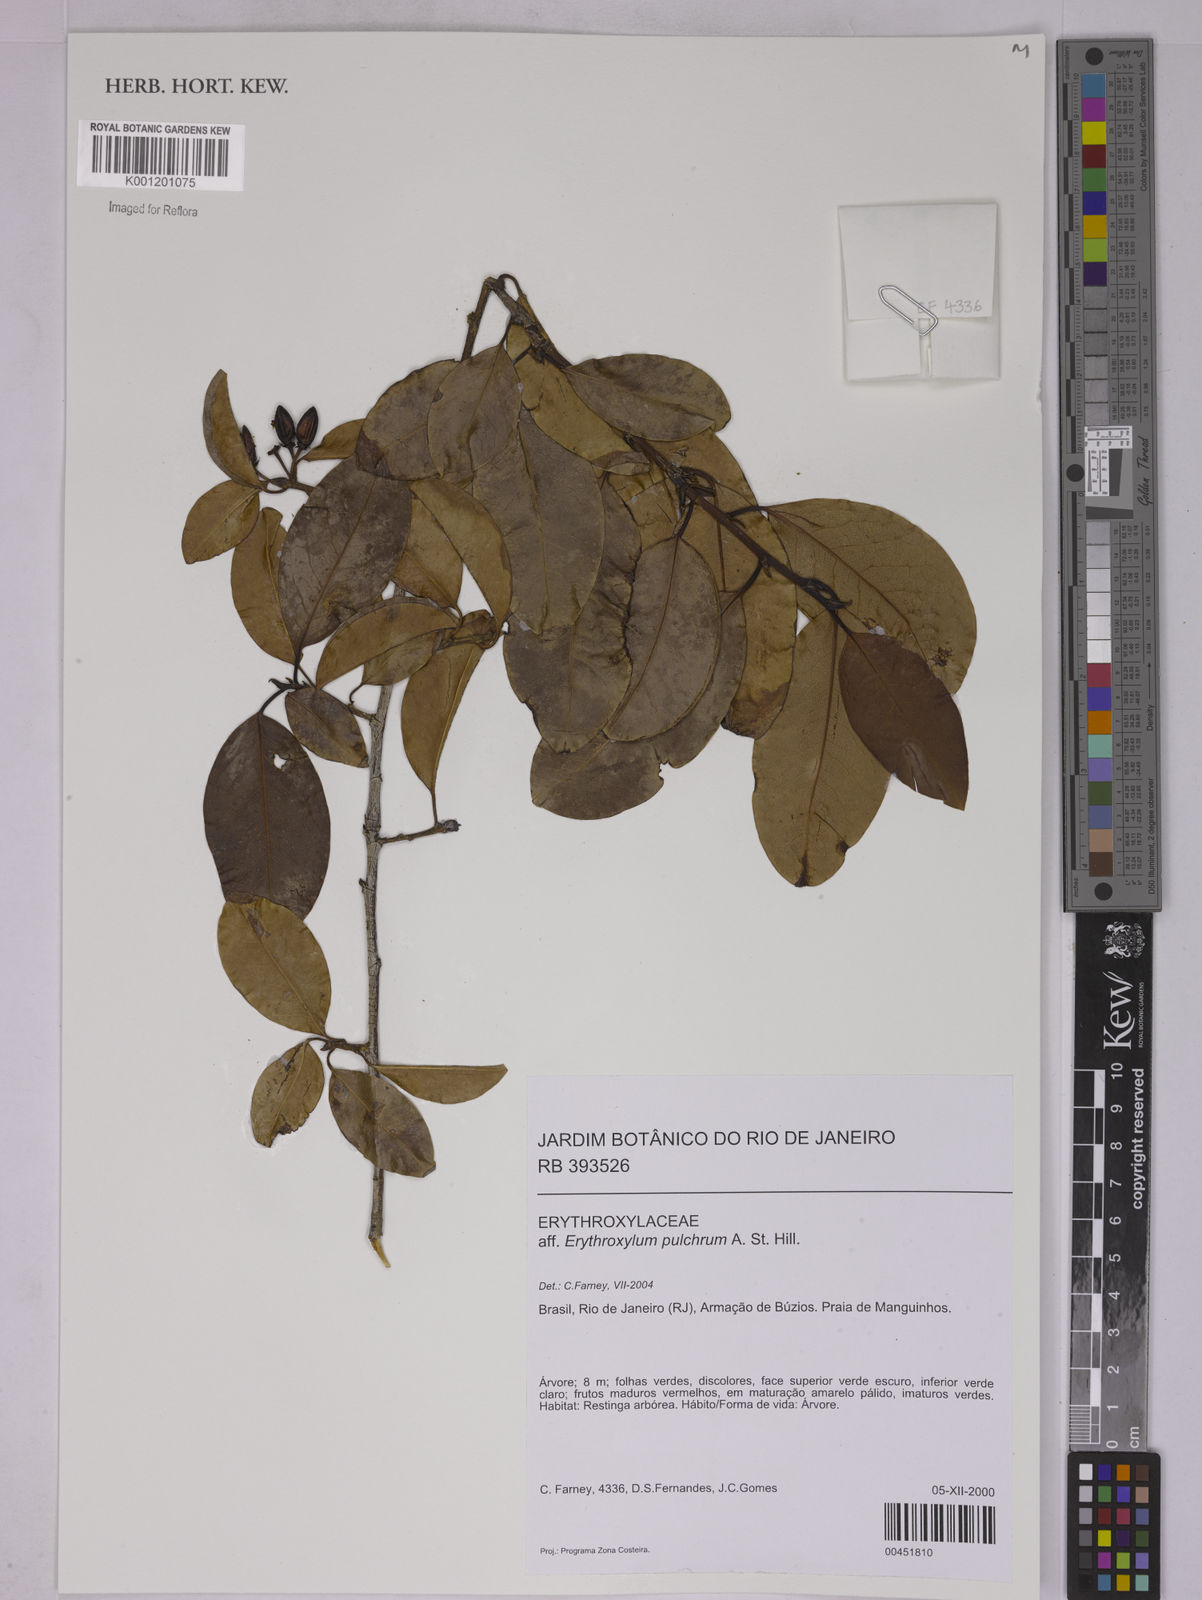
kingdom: Plantae
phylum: Tracheophyta
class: Magnoliopsida
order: Malpighiales
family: Erythroxylaceae
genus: Erythroxylum
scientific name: Erythroxylum pulchrum
